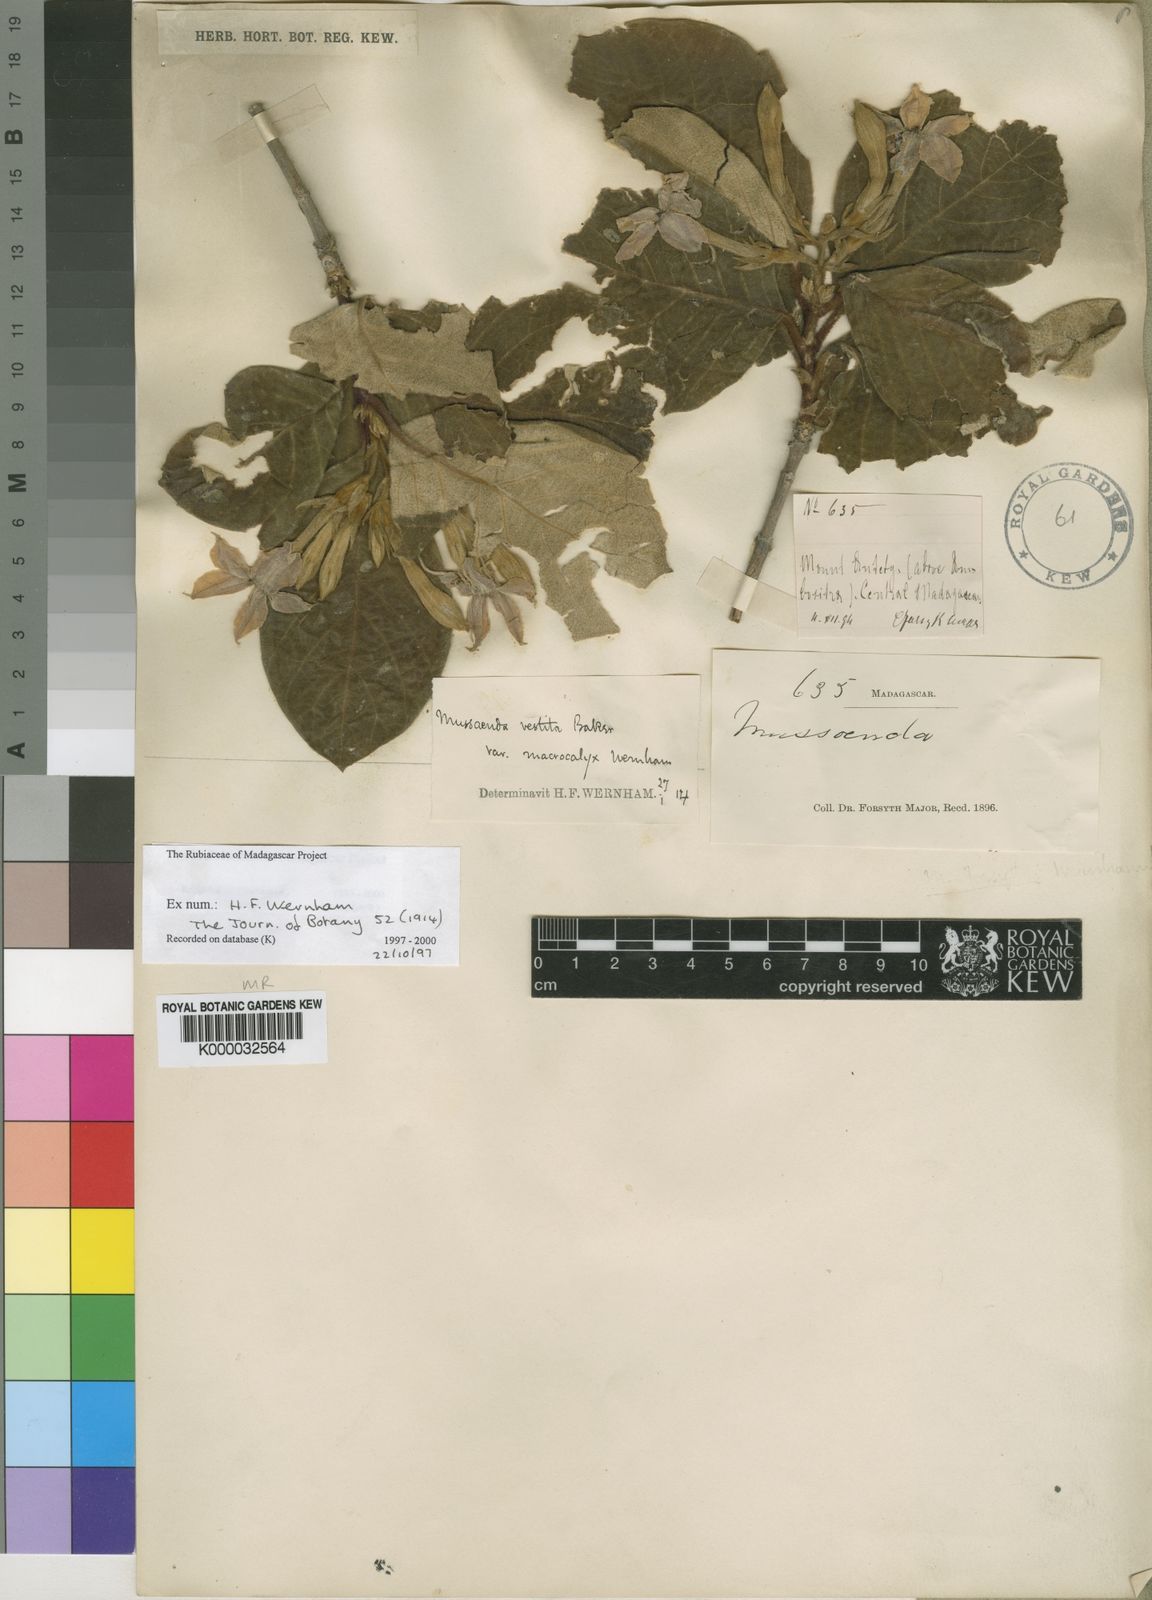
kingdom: Plantae
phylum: Tracheophyta
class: Magnoliopsida
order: Gentianales
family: Rubiaceae
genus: Bremeria
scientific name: Bremeria vestita
